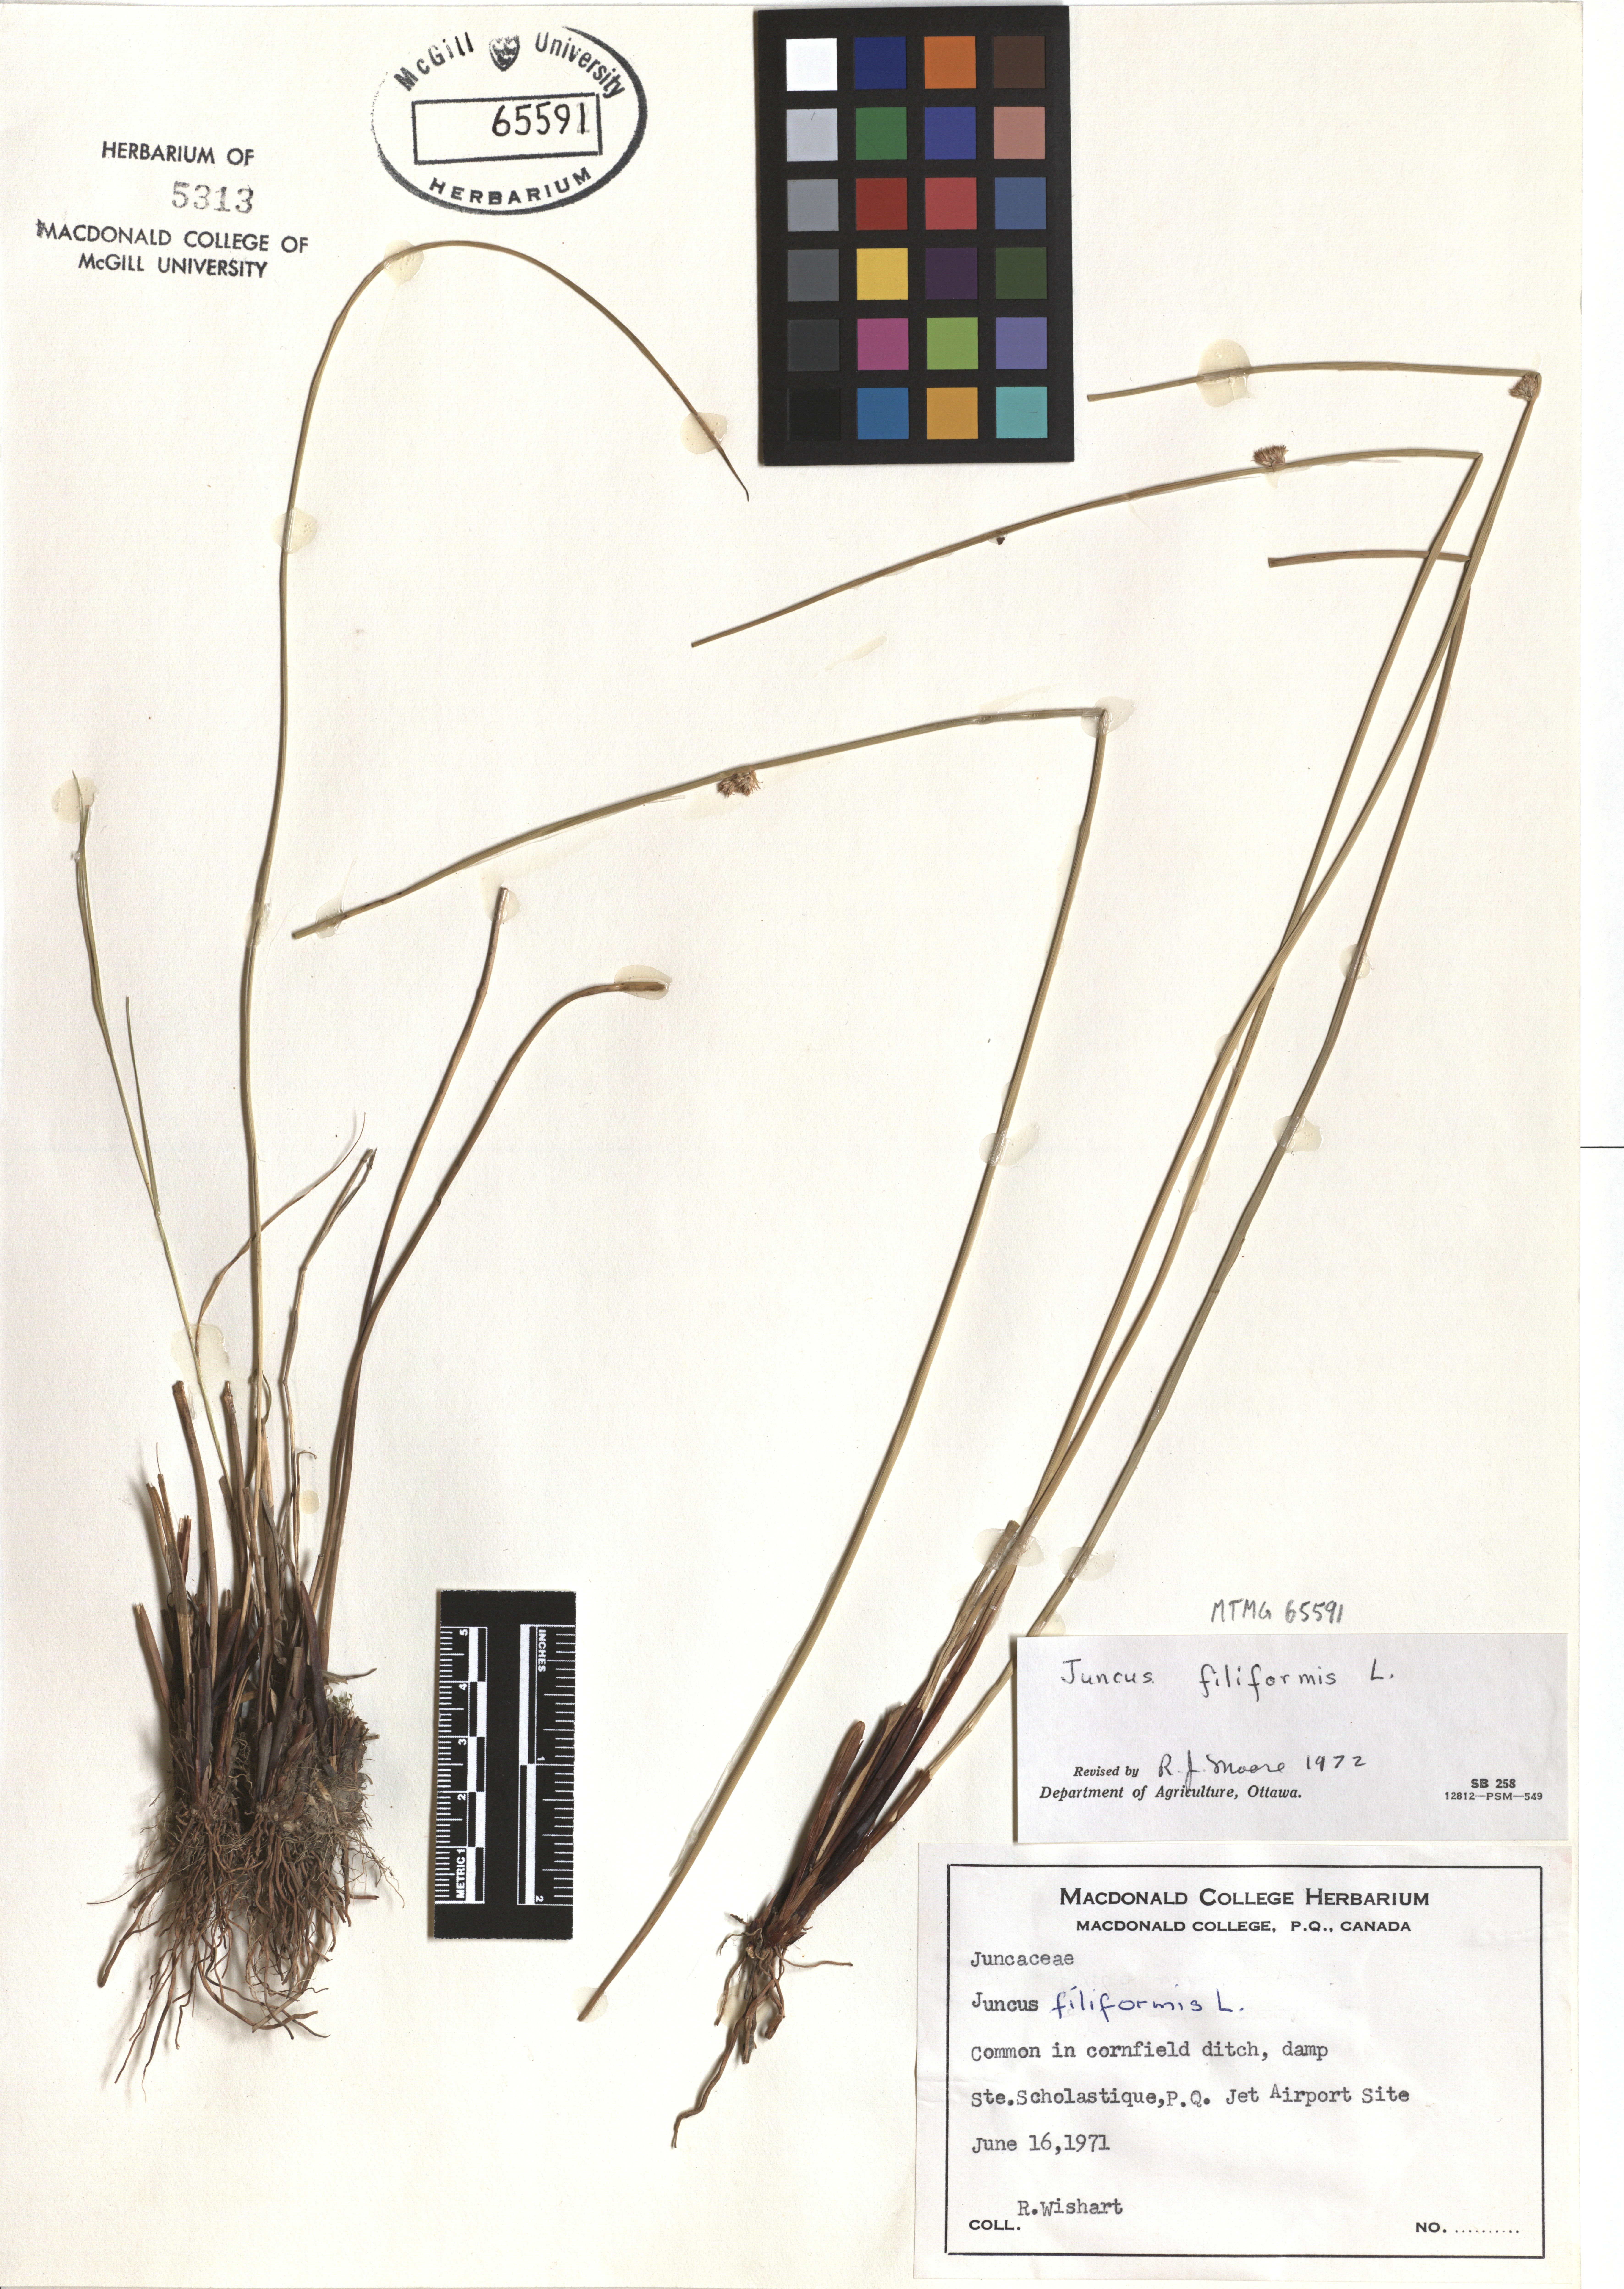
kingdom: Plantae
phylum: Tracheophyta
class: Liliopsida
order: Poales
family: Juncaceae
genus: Juncus
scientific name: Juncus filiformis
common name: Thread rush
